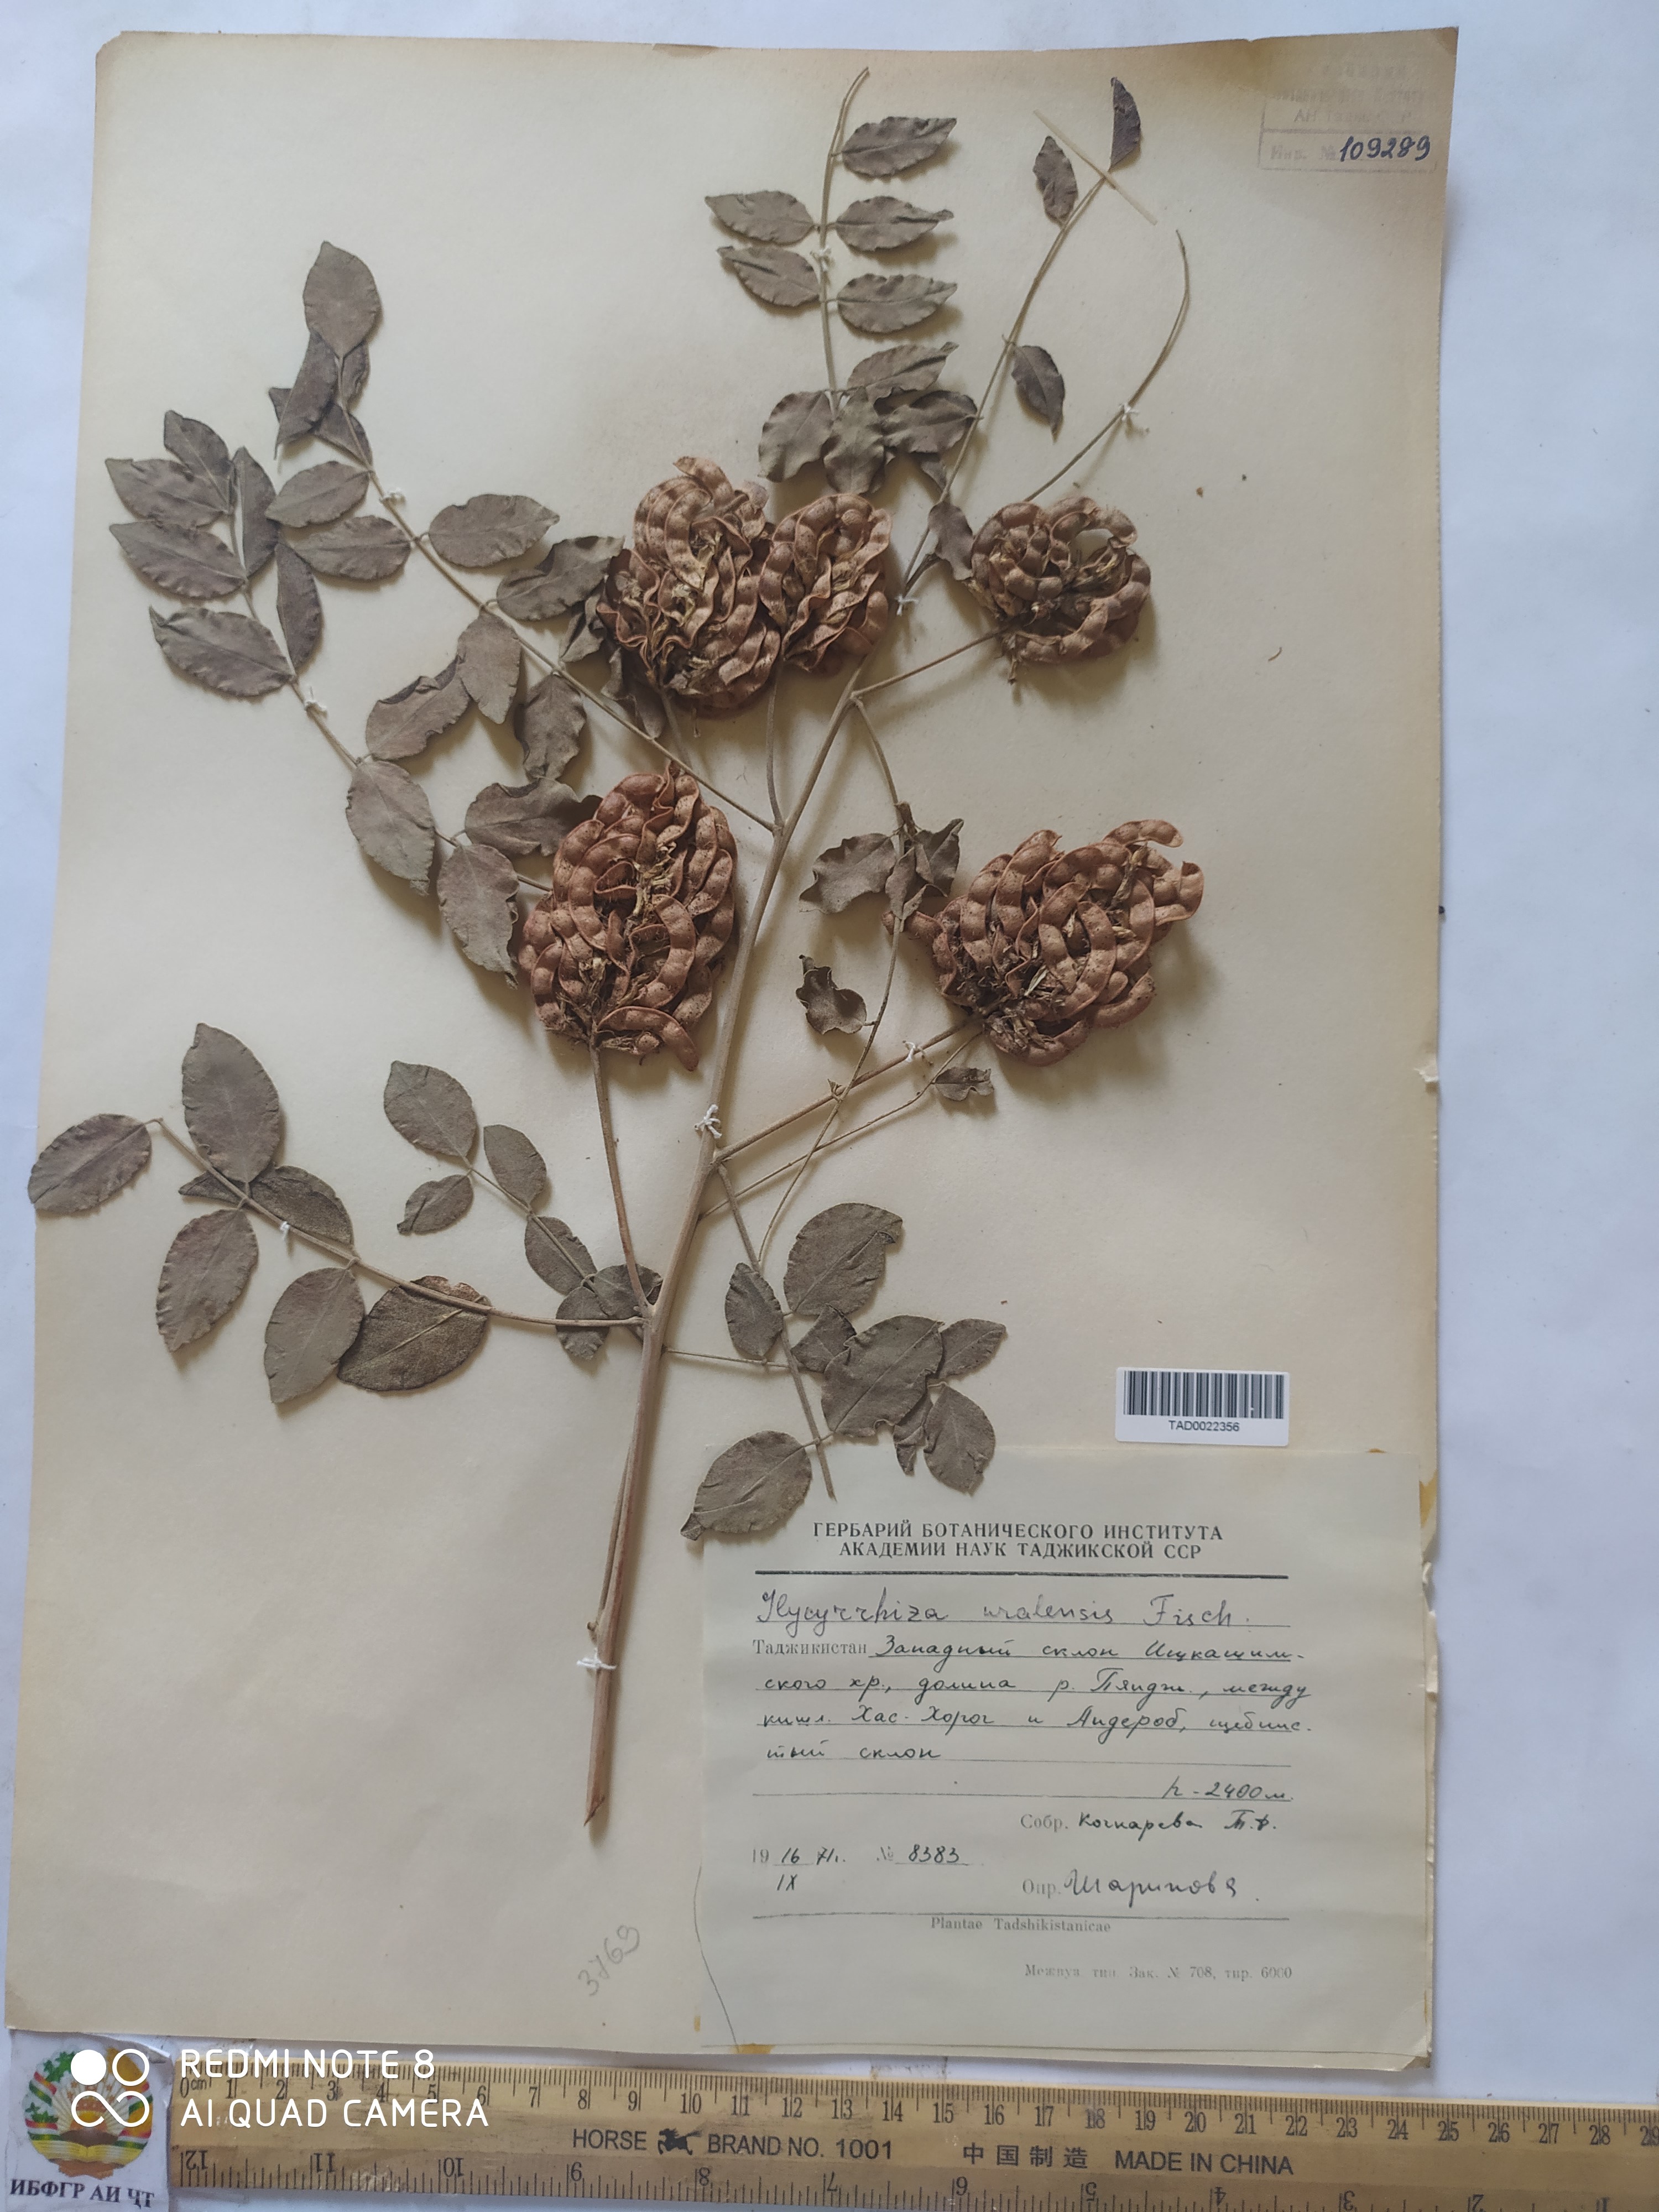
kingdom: Plantae
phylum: Tracheophyta
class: Magnoliopsida
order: Fabales
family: Fabaceae
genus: Glycyrrhiza
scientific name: Glycyrrhiza uralensis
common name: Chinese licorice
